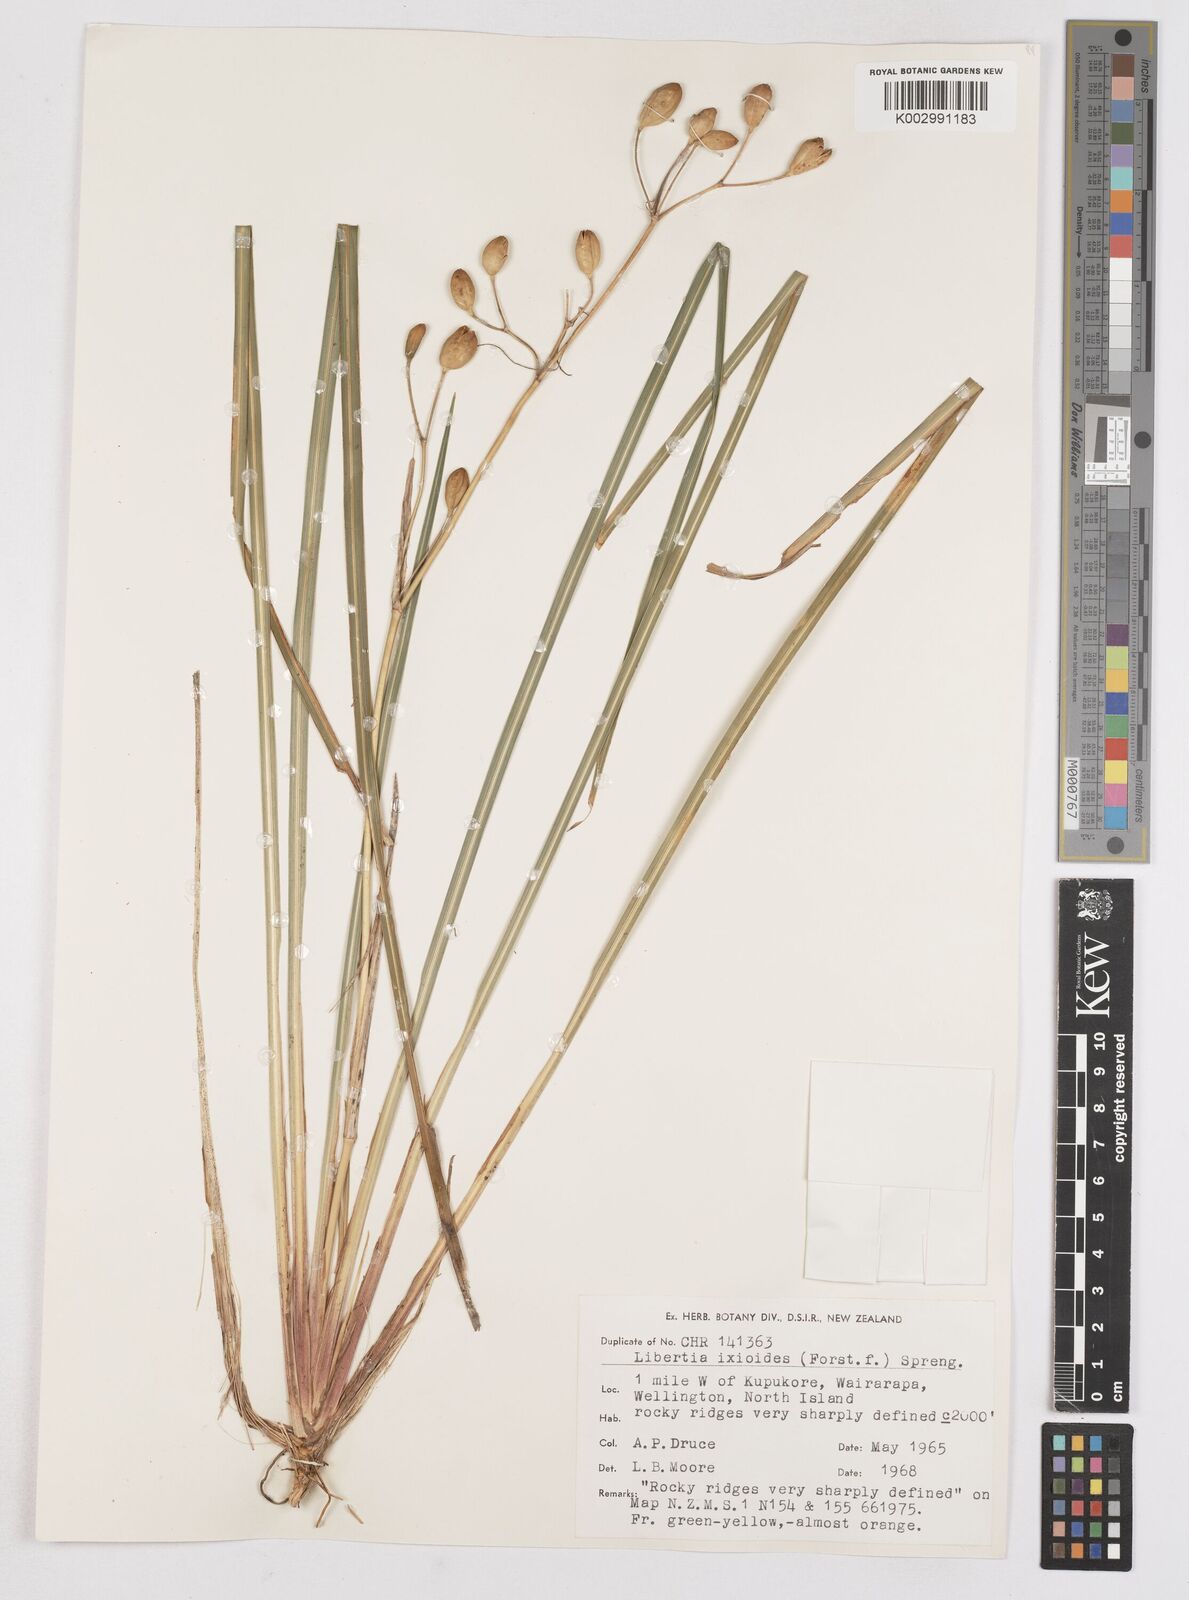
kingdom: Plantae
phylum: Tracheophyta
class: Liliopsida
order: Asparagales
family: Iridaceae
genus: Libertia
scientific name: Libertia ixioides
